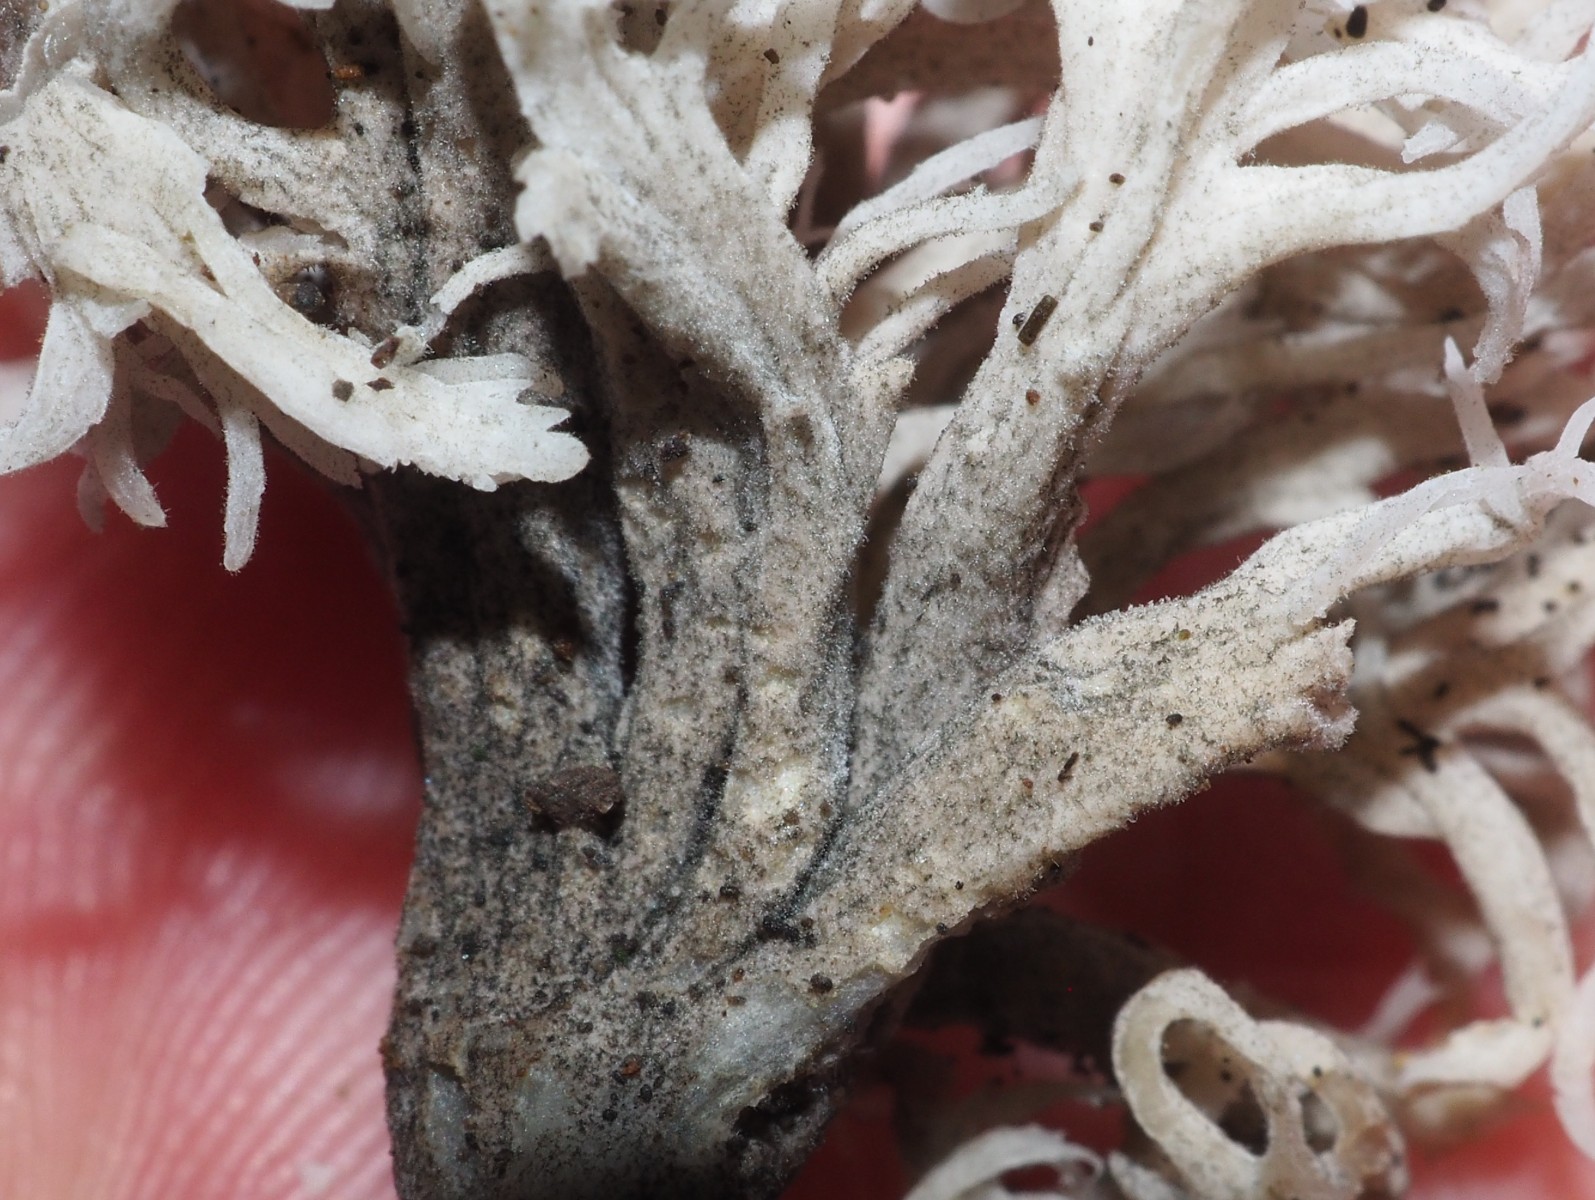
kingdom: Fungi
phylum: Ascomycota
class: Sordariomycetes
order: Sordariales
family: Helminthosphaeriaceae
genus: Helminthosphaeria
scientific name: Helminthosphaeria clavariarum
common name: trold-svampesnyltekerne
